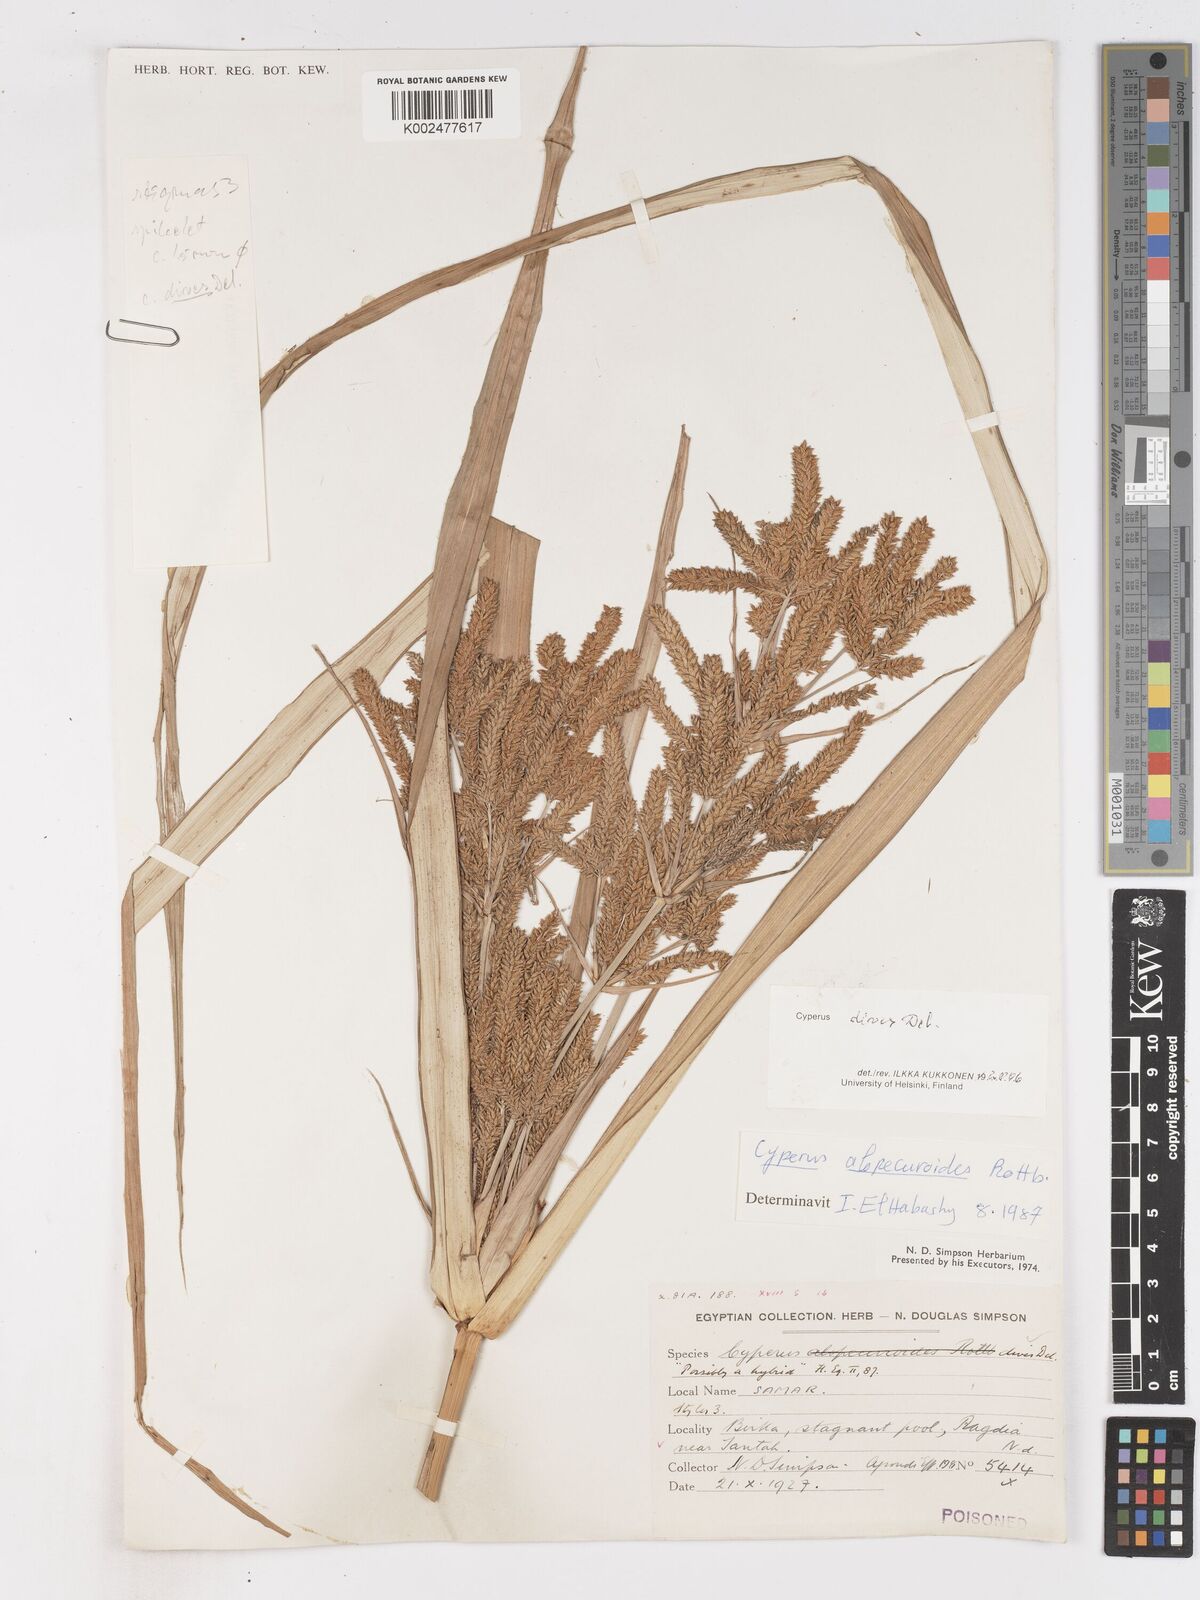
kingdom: Plantae
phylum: Tracheophyta
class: Liliopsida
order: Poales
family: Cyperaceae
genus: Cyperus
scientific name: Cyperus dives
